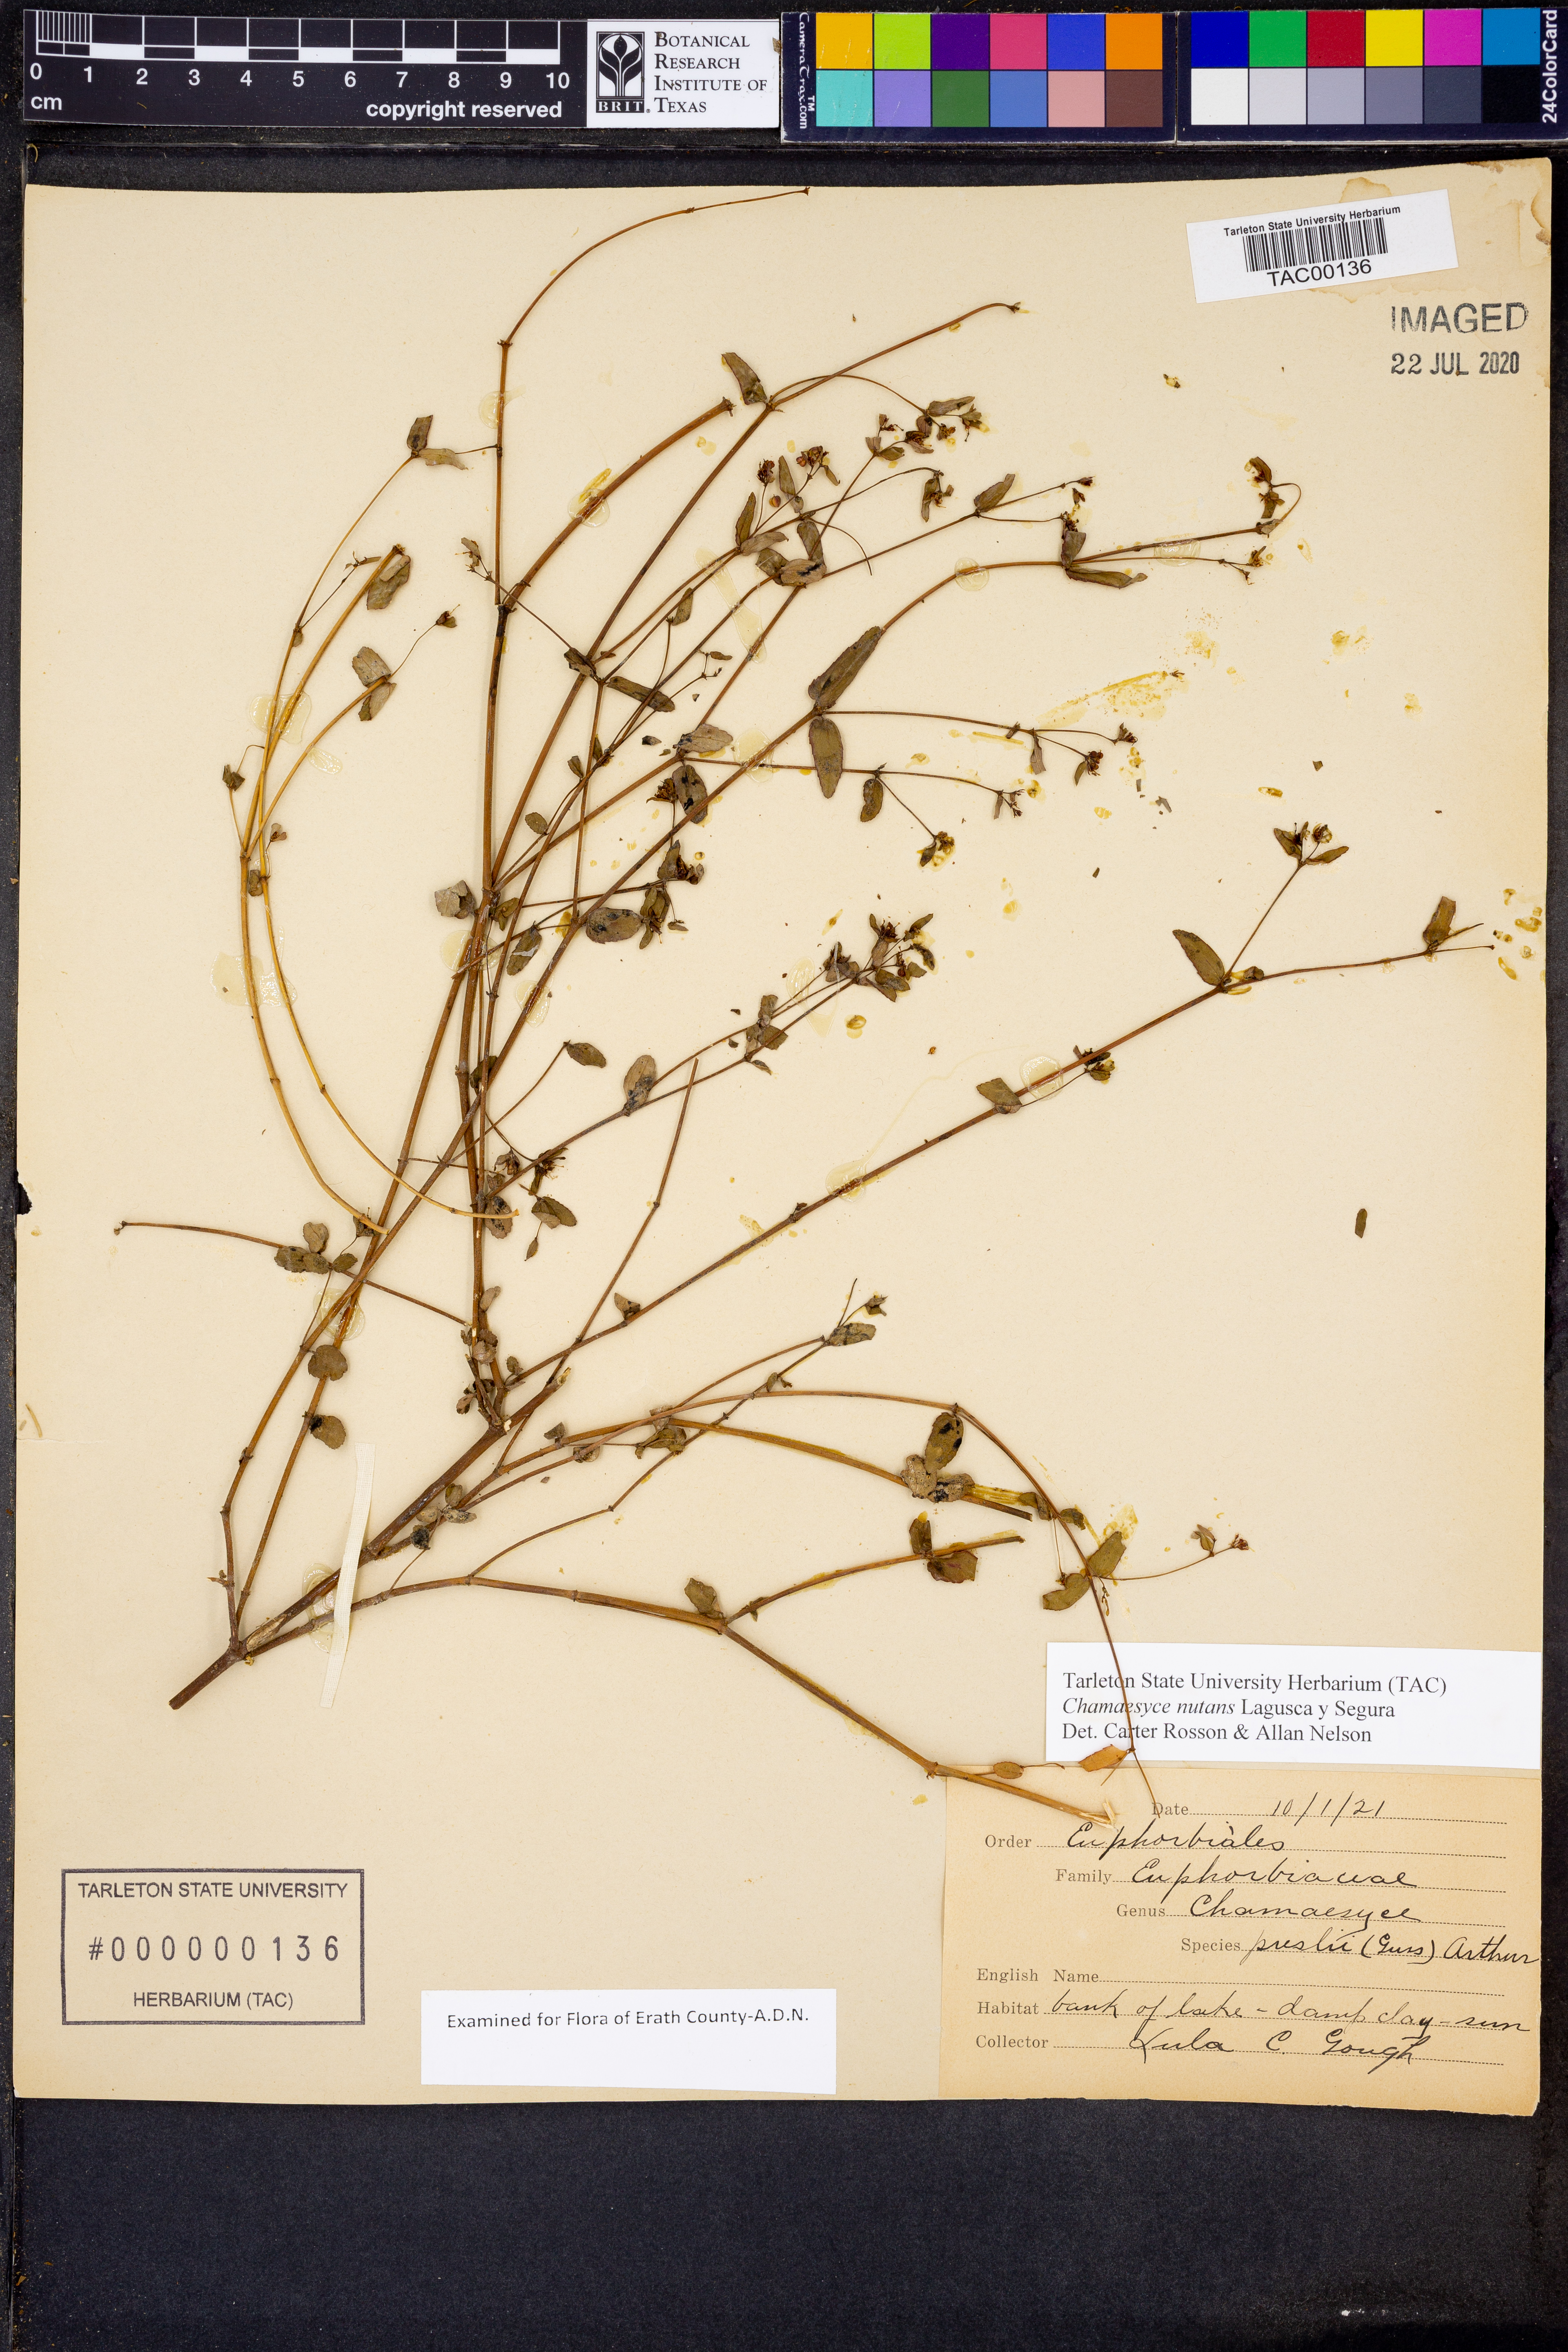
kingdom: Plantae
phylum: Tracheophyta
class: Magnoliopsida
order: Malpighiales
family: Euphorbiaceae
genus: Euphorbia
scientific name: Euphorbia nutans
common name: Eyebane
